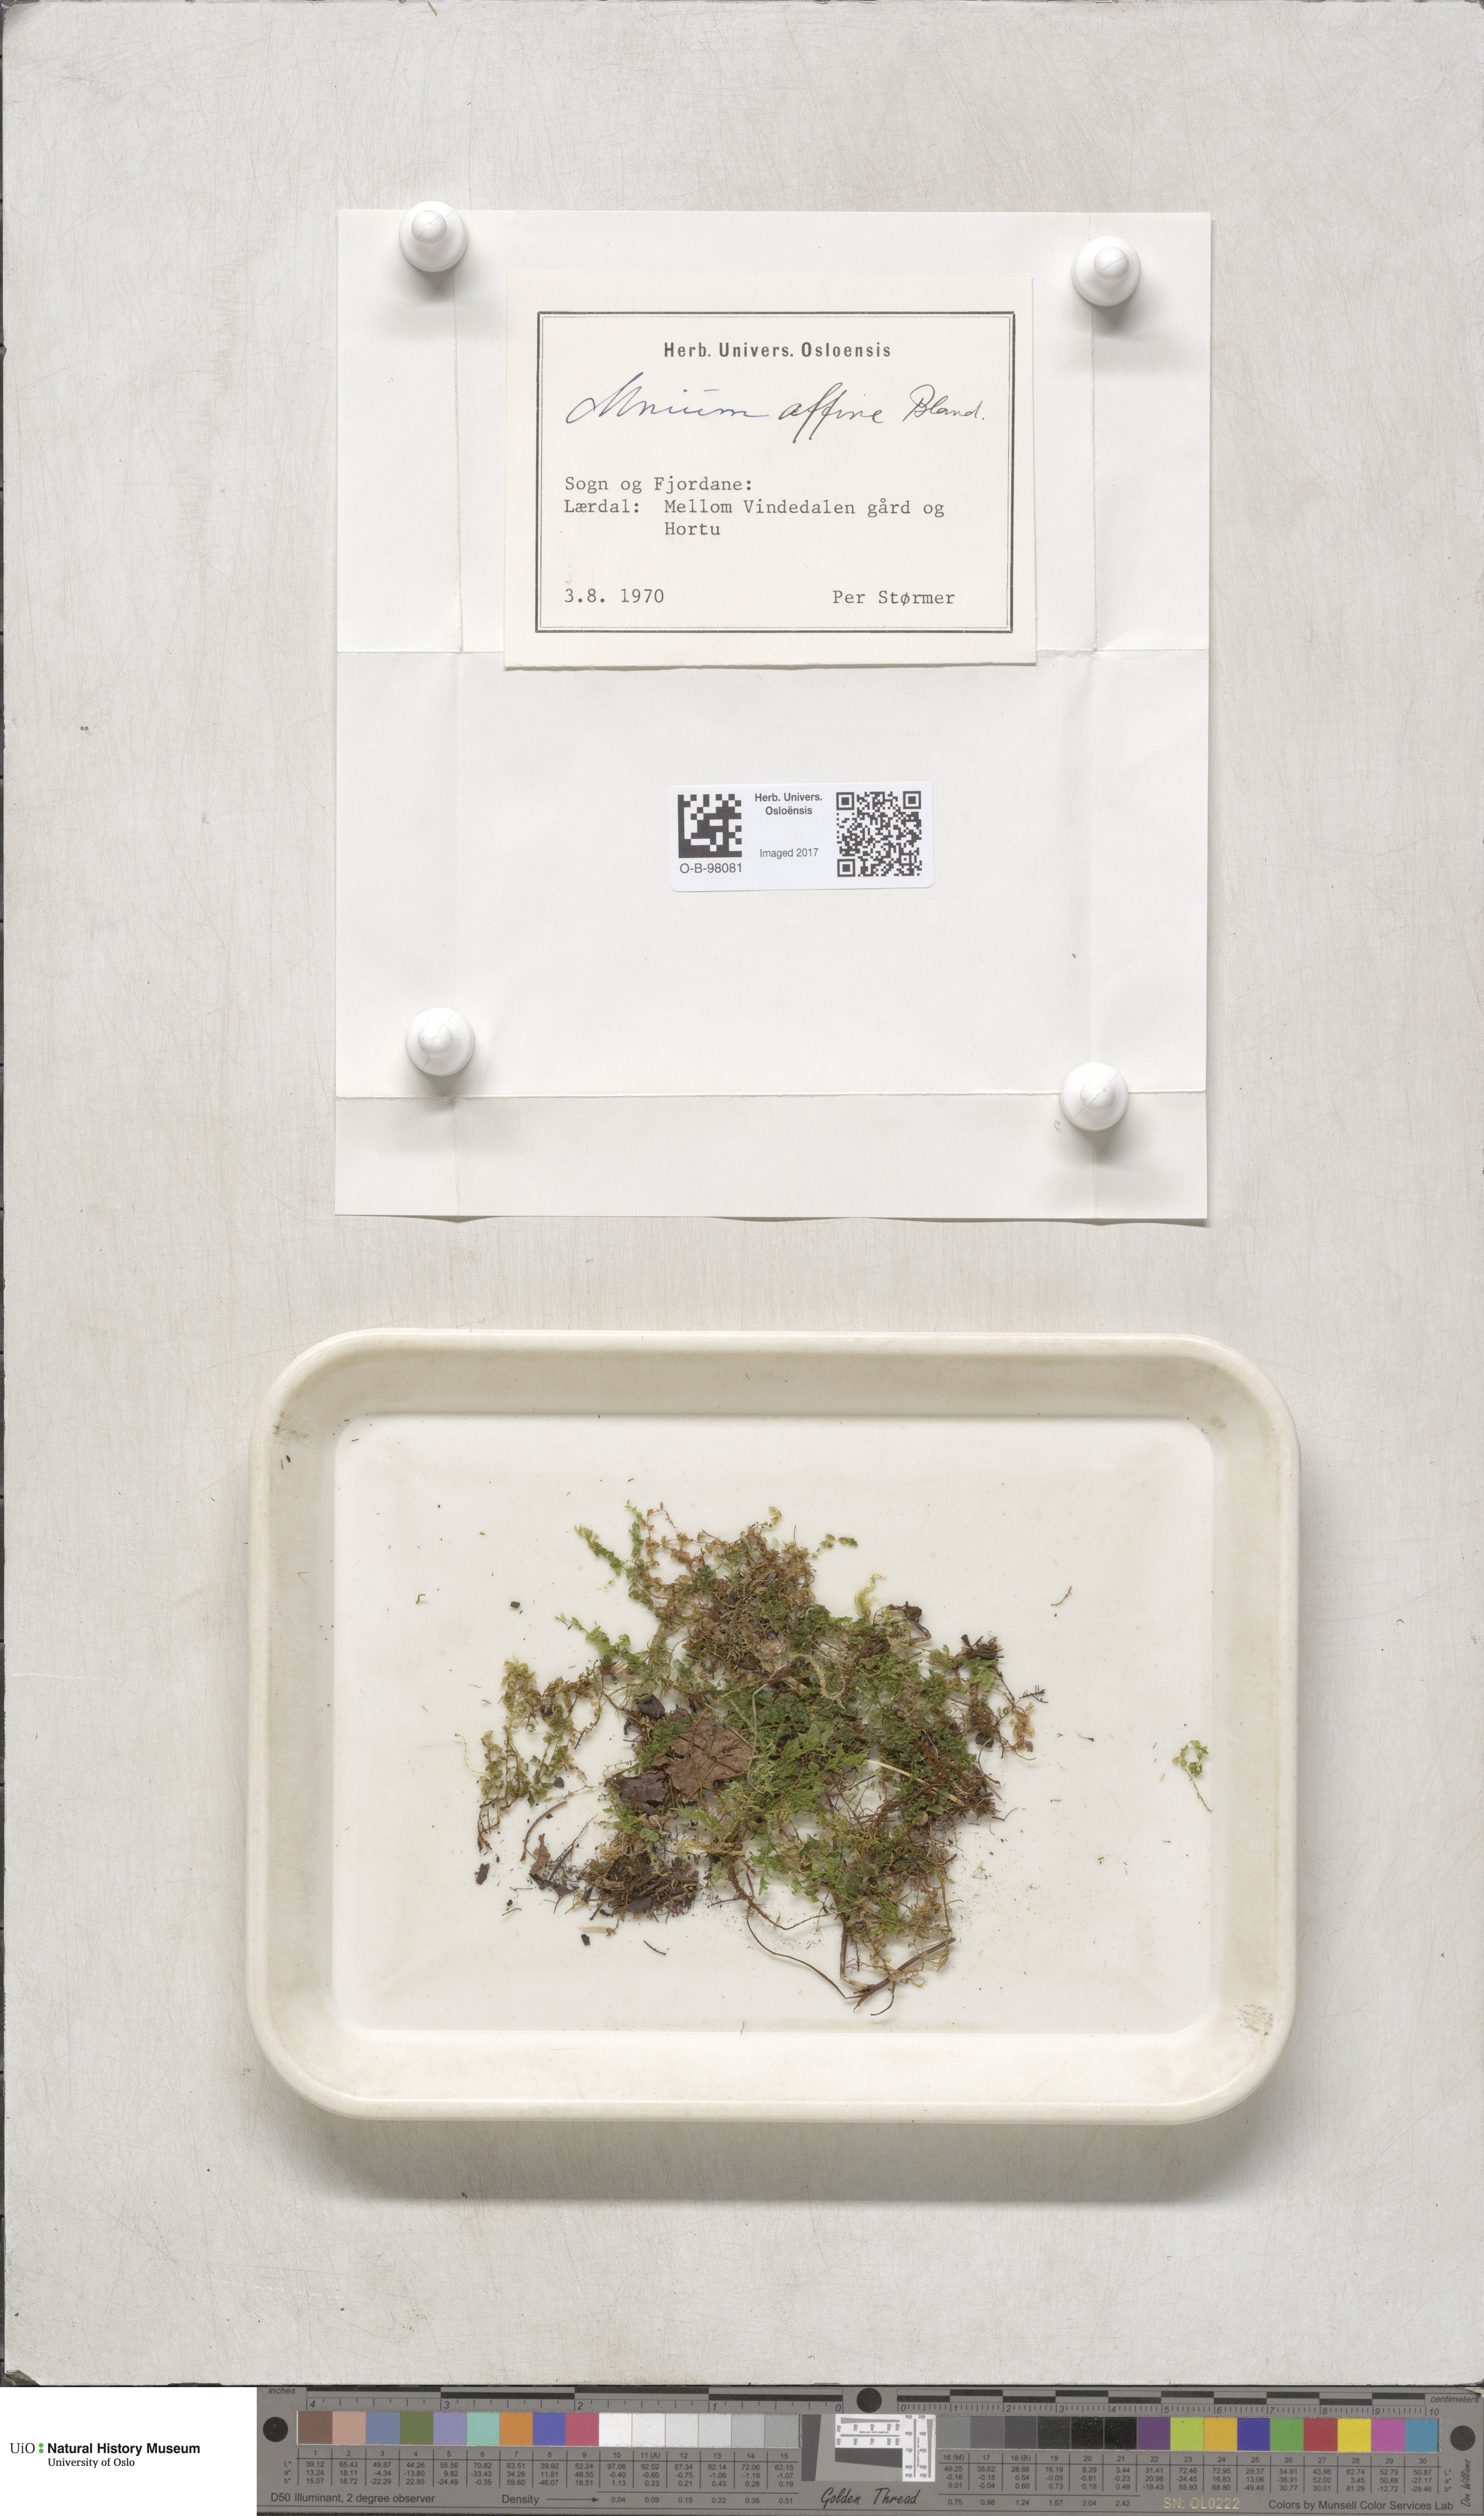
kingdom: Plantae
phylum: Bryophyta
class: Bryopsida
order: Bryales
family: Mniaceae
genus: Plagiomnium
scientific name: Plagiomnium affine
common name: Many-fruited thyme-moss
